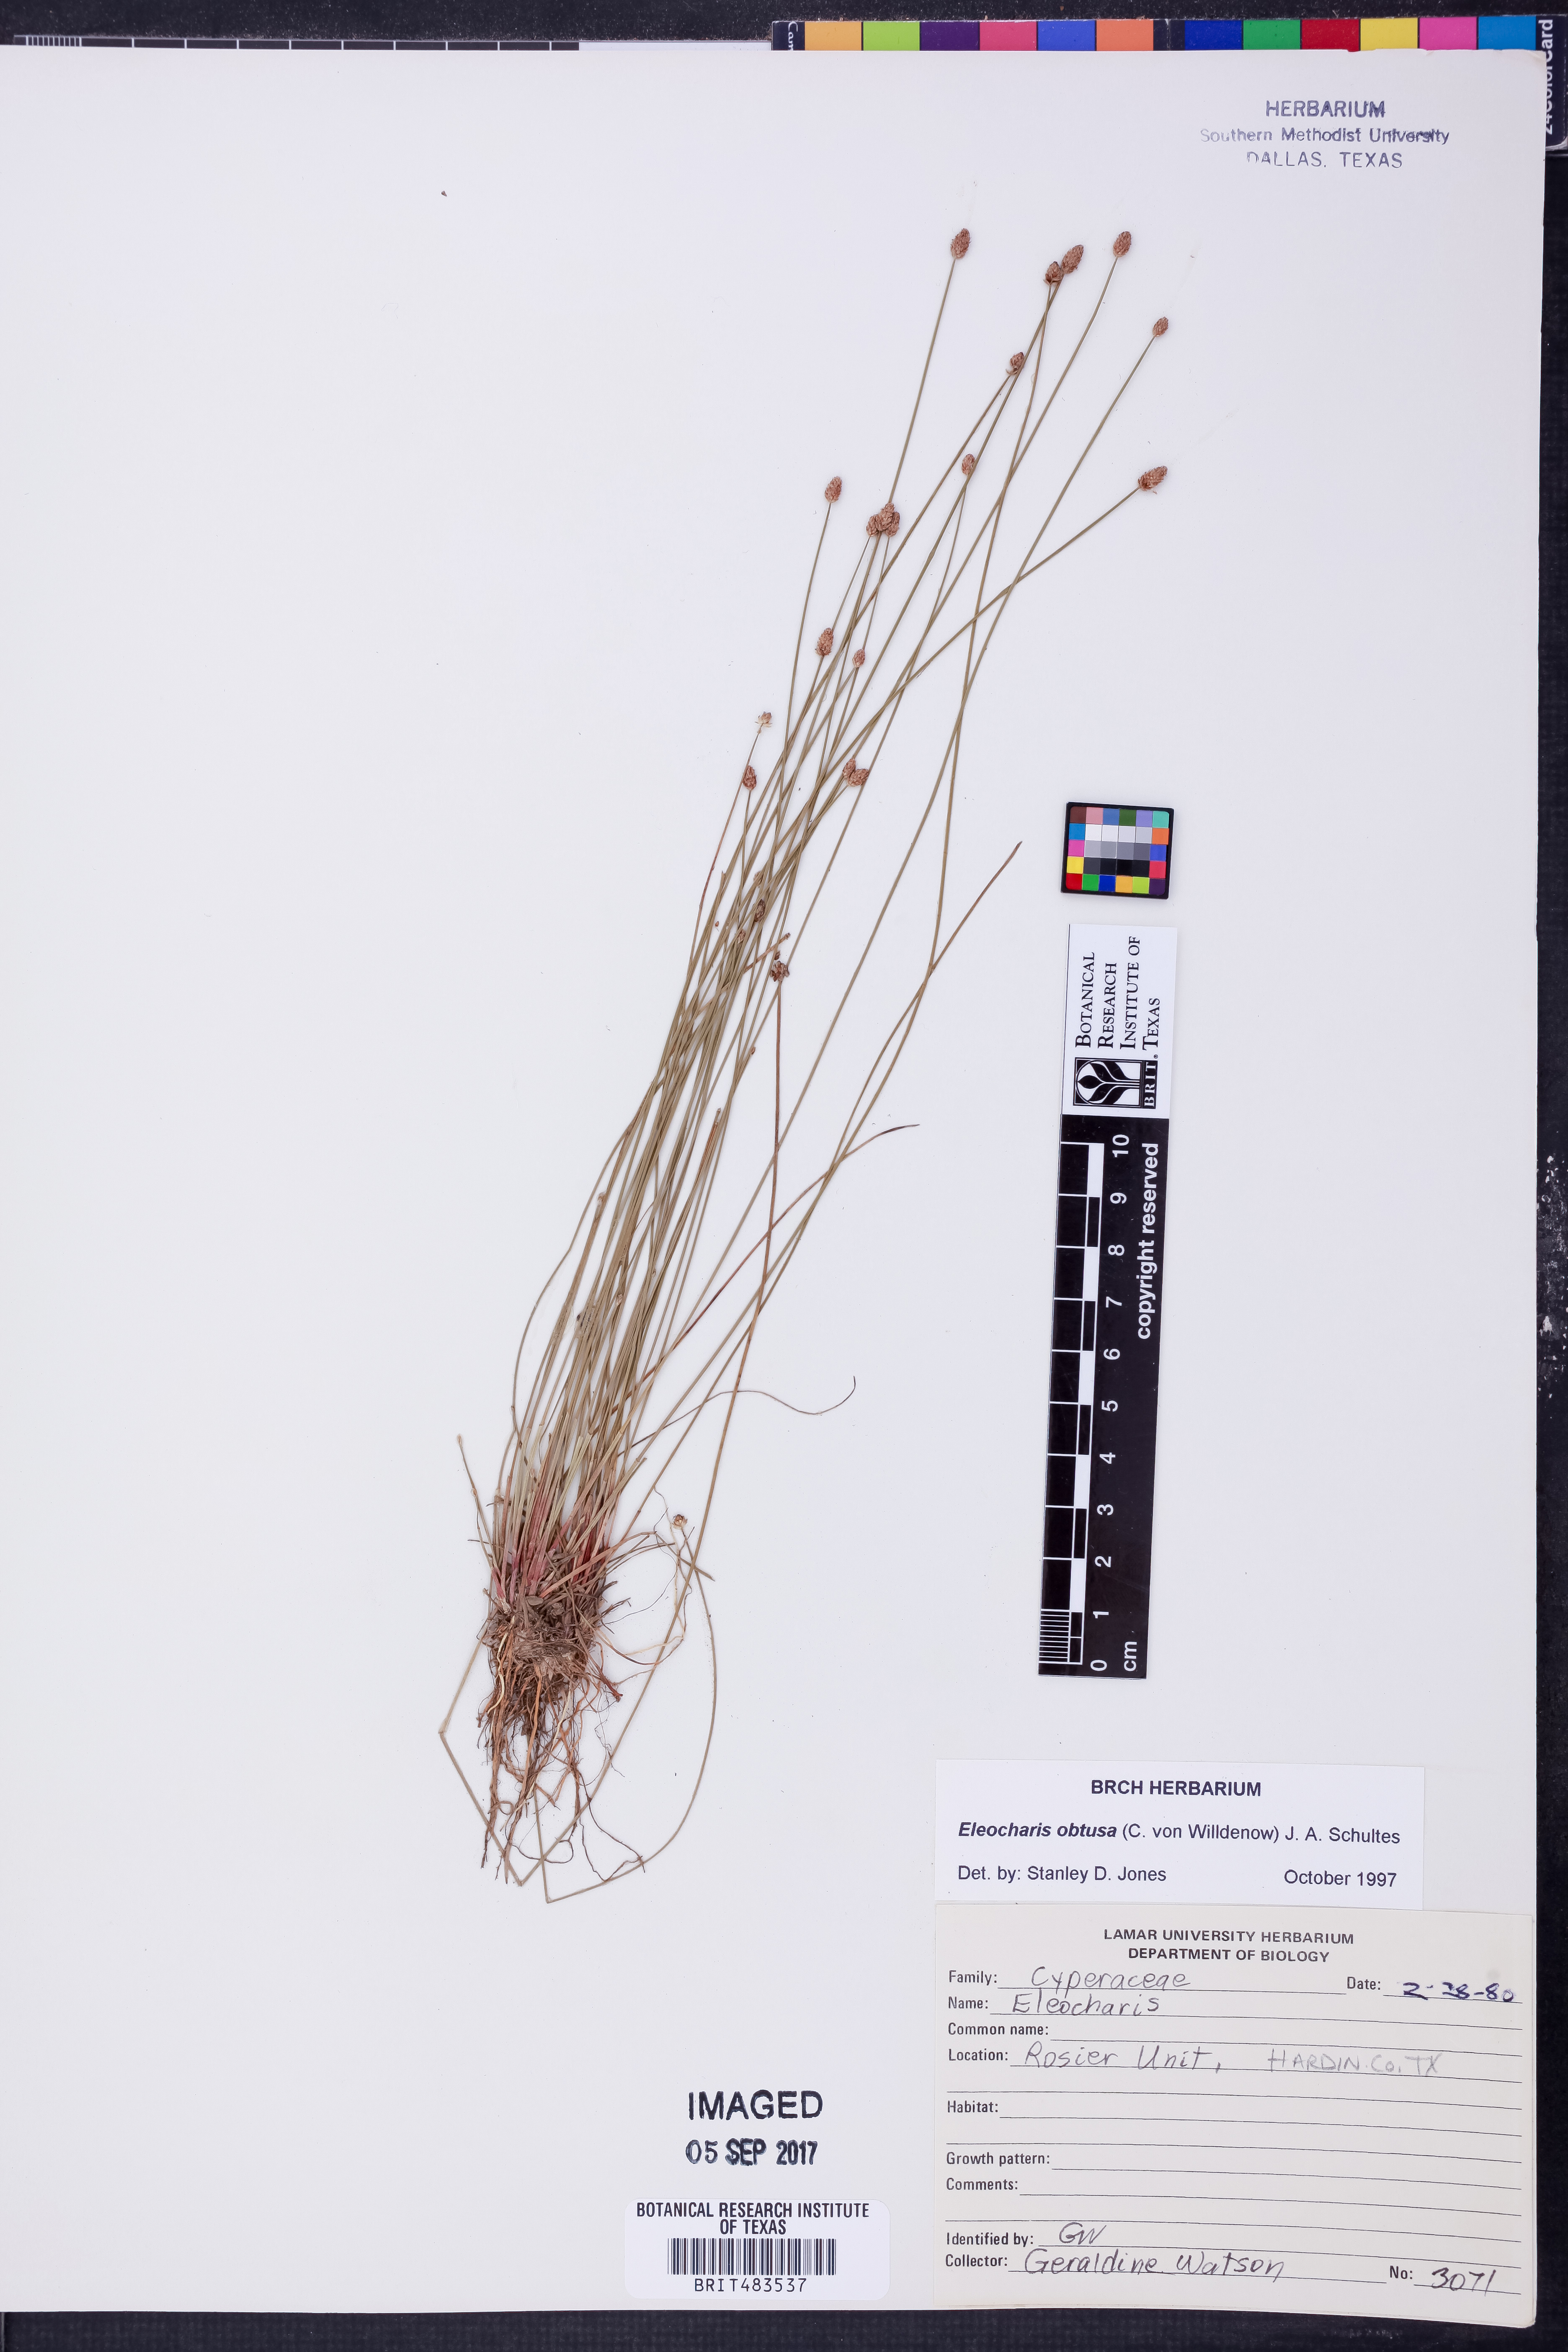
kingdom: Plantae
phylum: Tracheophyta
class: Liliopsida
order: Poales
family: Cyperaceae
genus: Eleocharis
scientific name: Eleocharis obtusa
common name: Blunt spikerush
